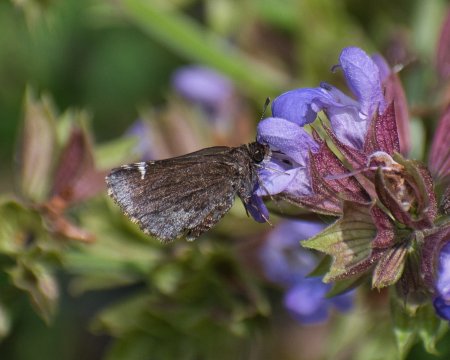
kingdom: Animalia
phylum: Arthropoda
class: Insecta
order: Lepidoptera
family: Hesperiidae
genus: Mastor
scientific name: Mastor vialis
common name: Common Roadside-Skipper
